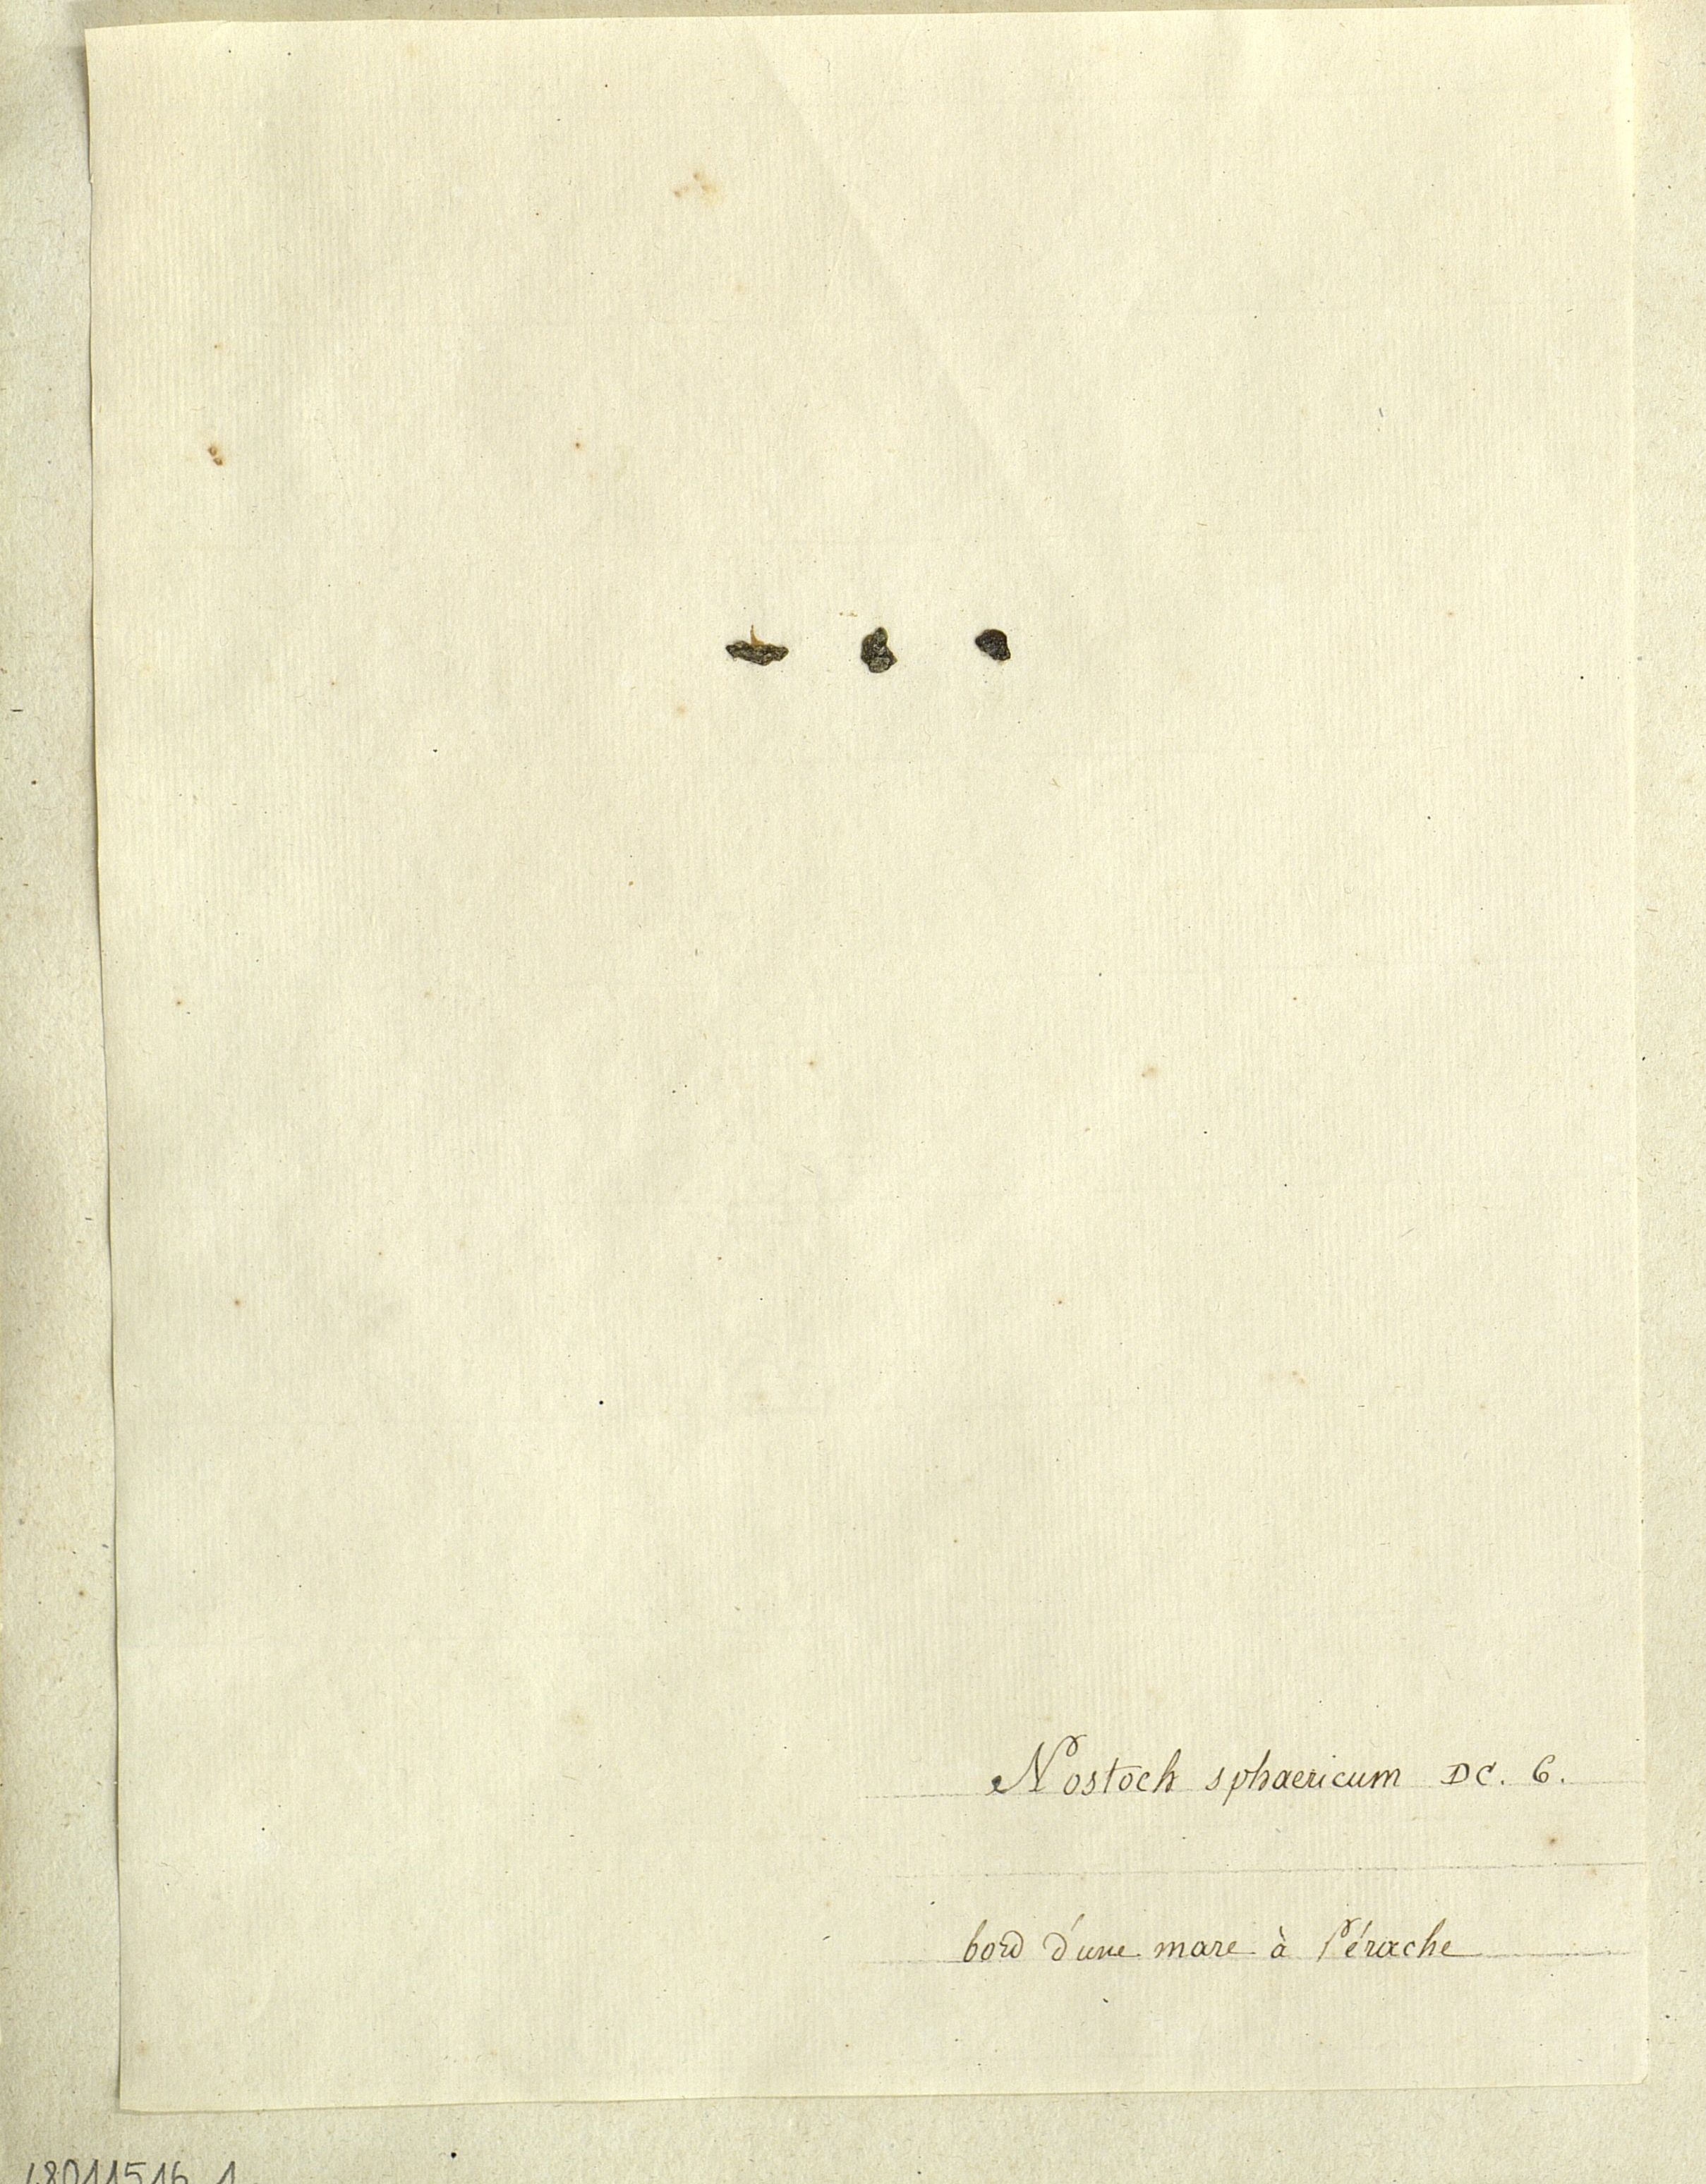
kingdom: Bacteria
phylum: Cyanobacteria
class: Cyanobacteriia
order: Cyanobacteriales
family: Nostocaceae
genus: Nostoc
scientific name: Nostoc sphaericum
